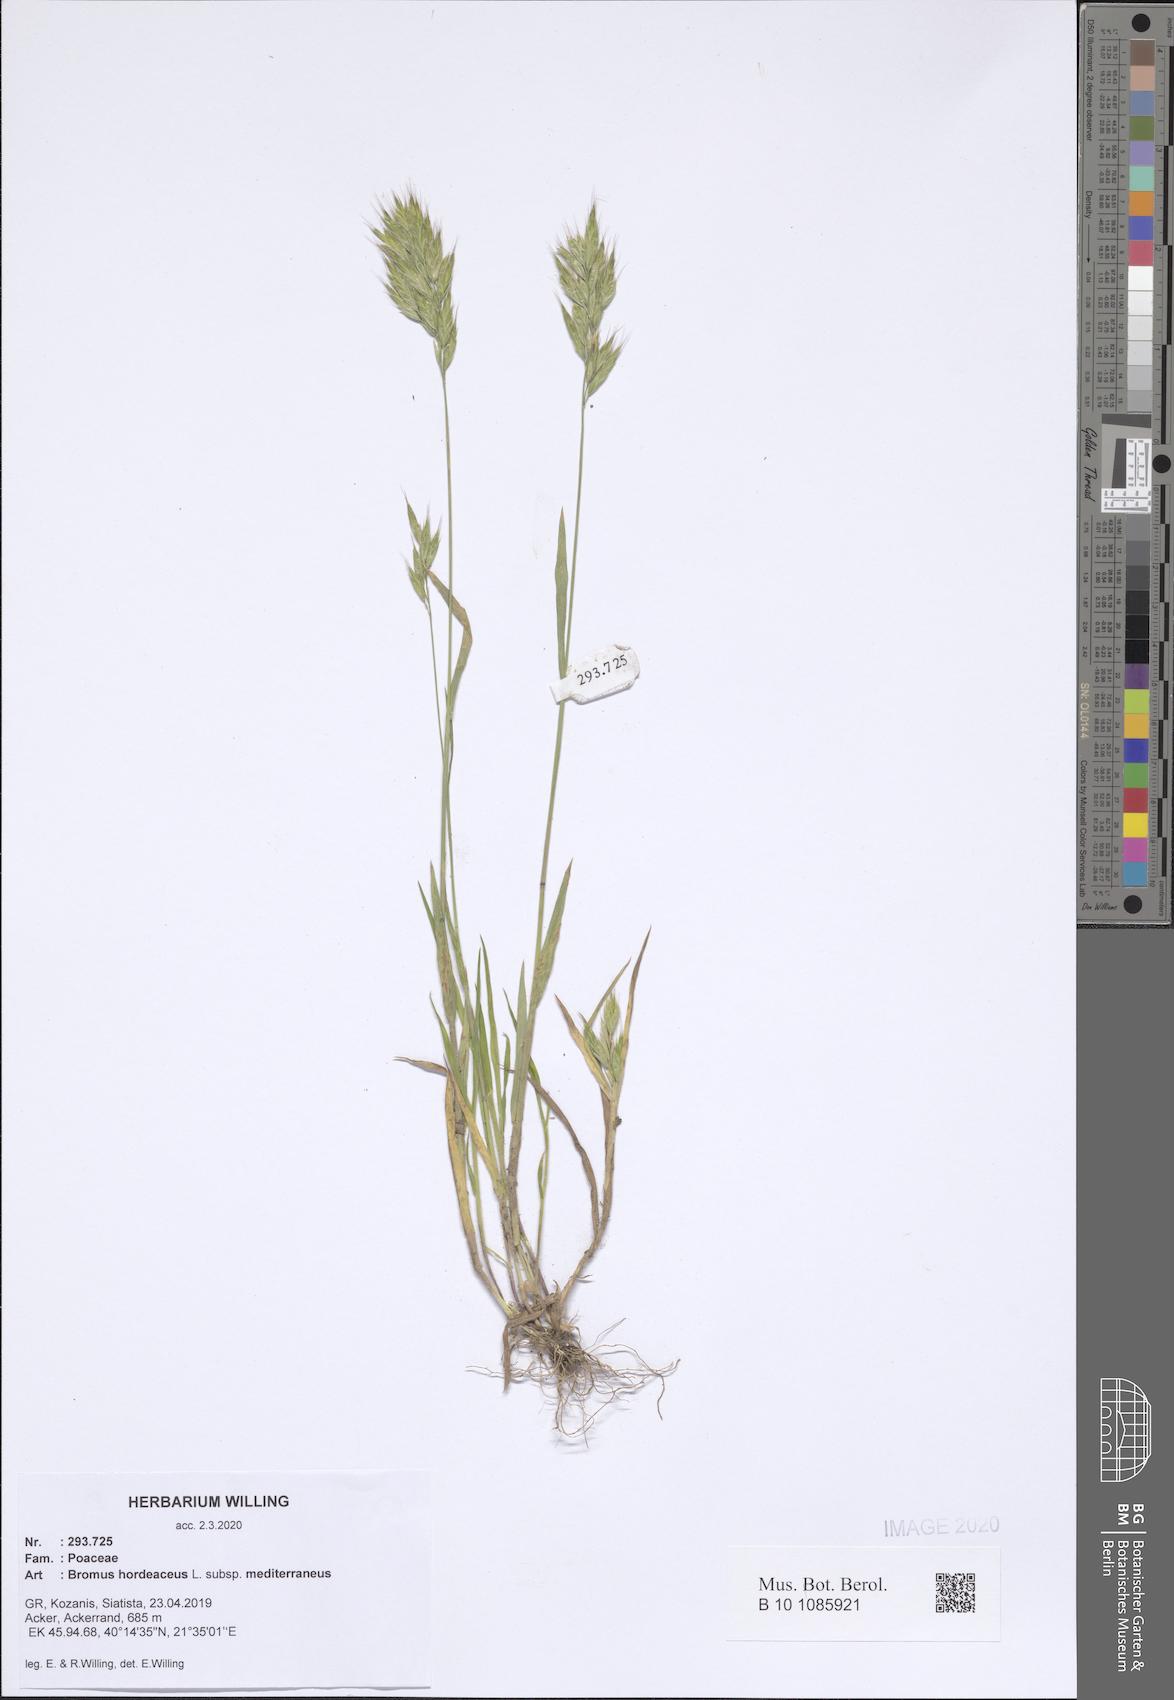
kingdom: Plantae
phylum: Tracheophyta
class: Liliopsida
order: Poales
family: Poaceae
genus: Bromus
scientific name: Bromus hordeaceus
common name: Soft brome
